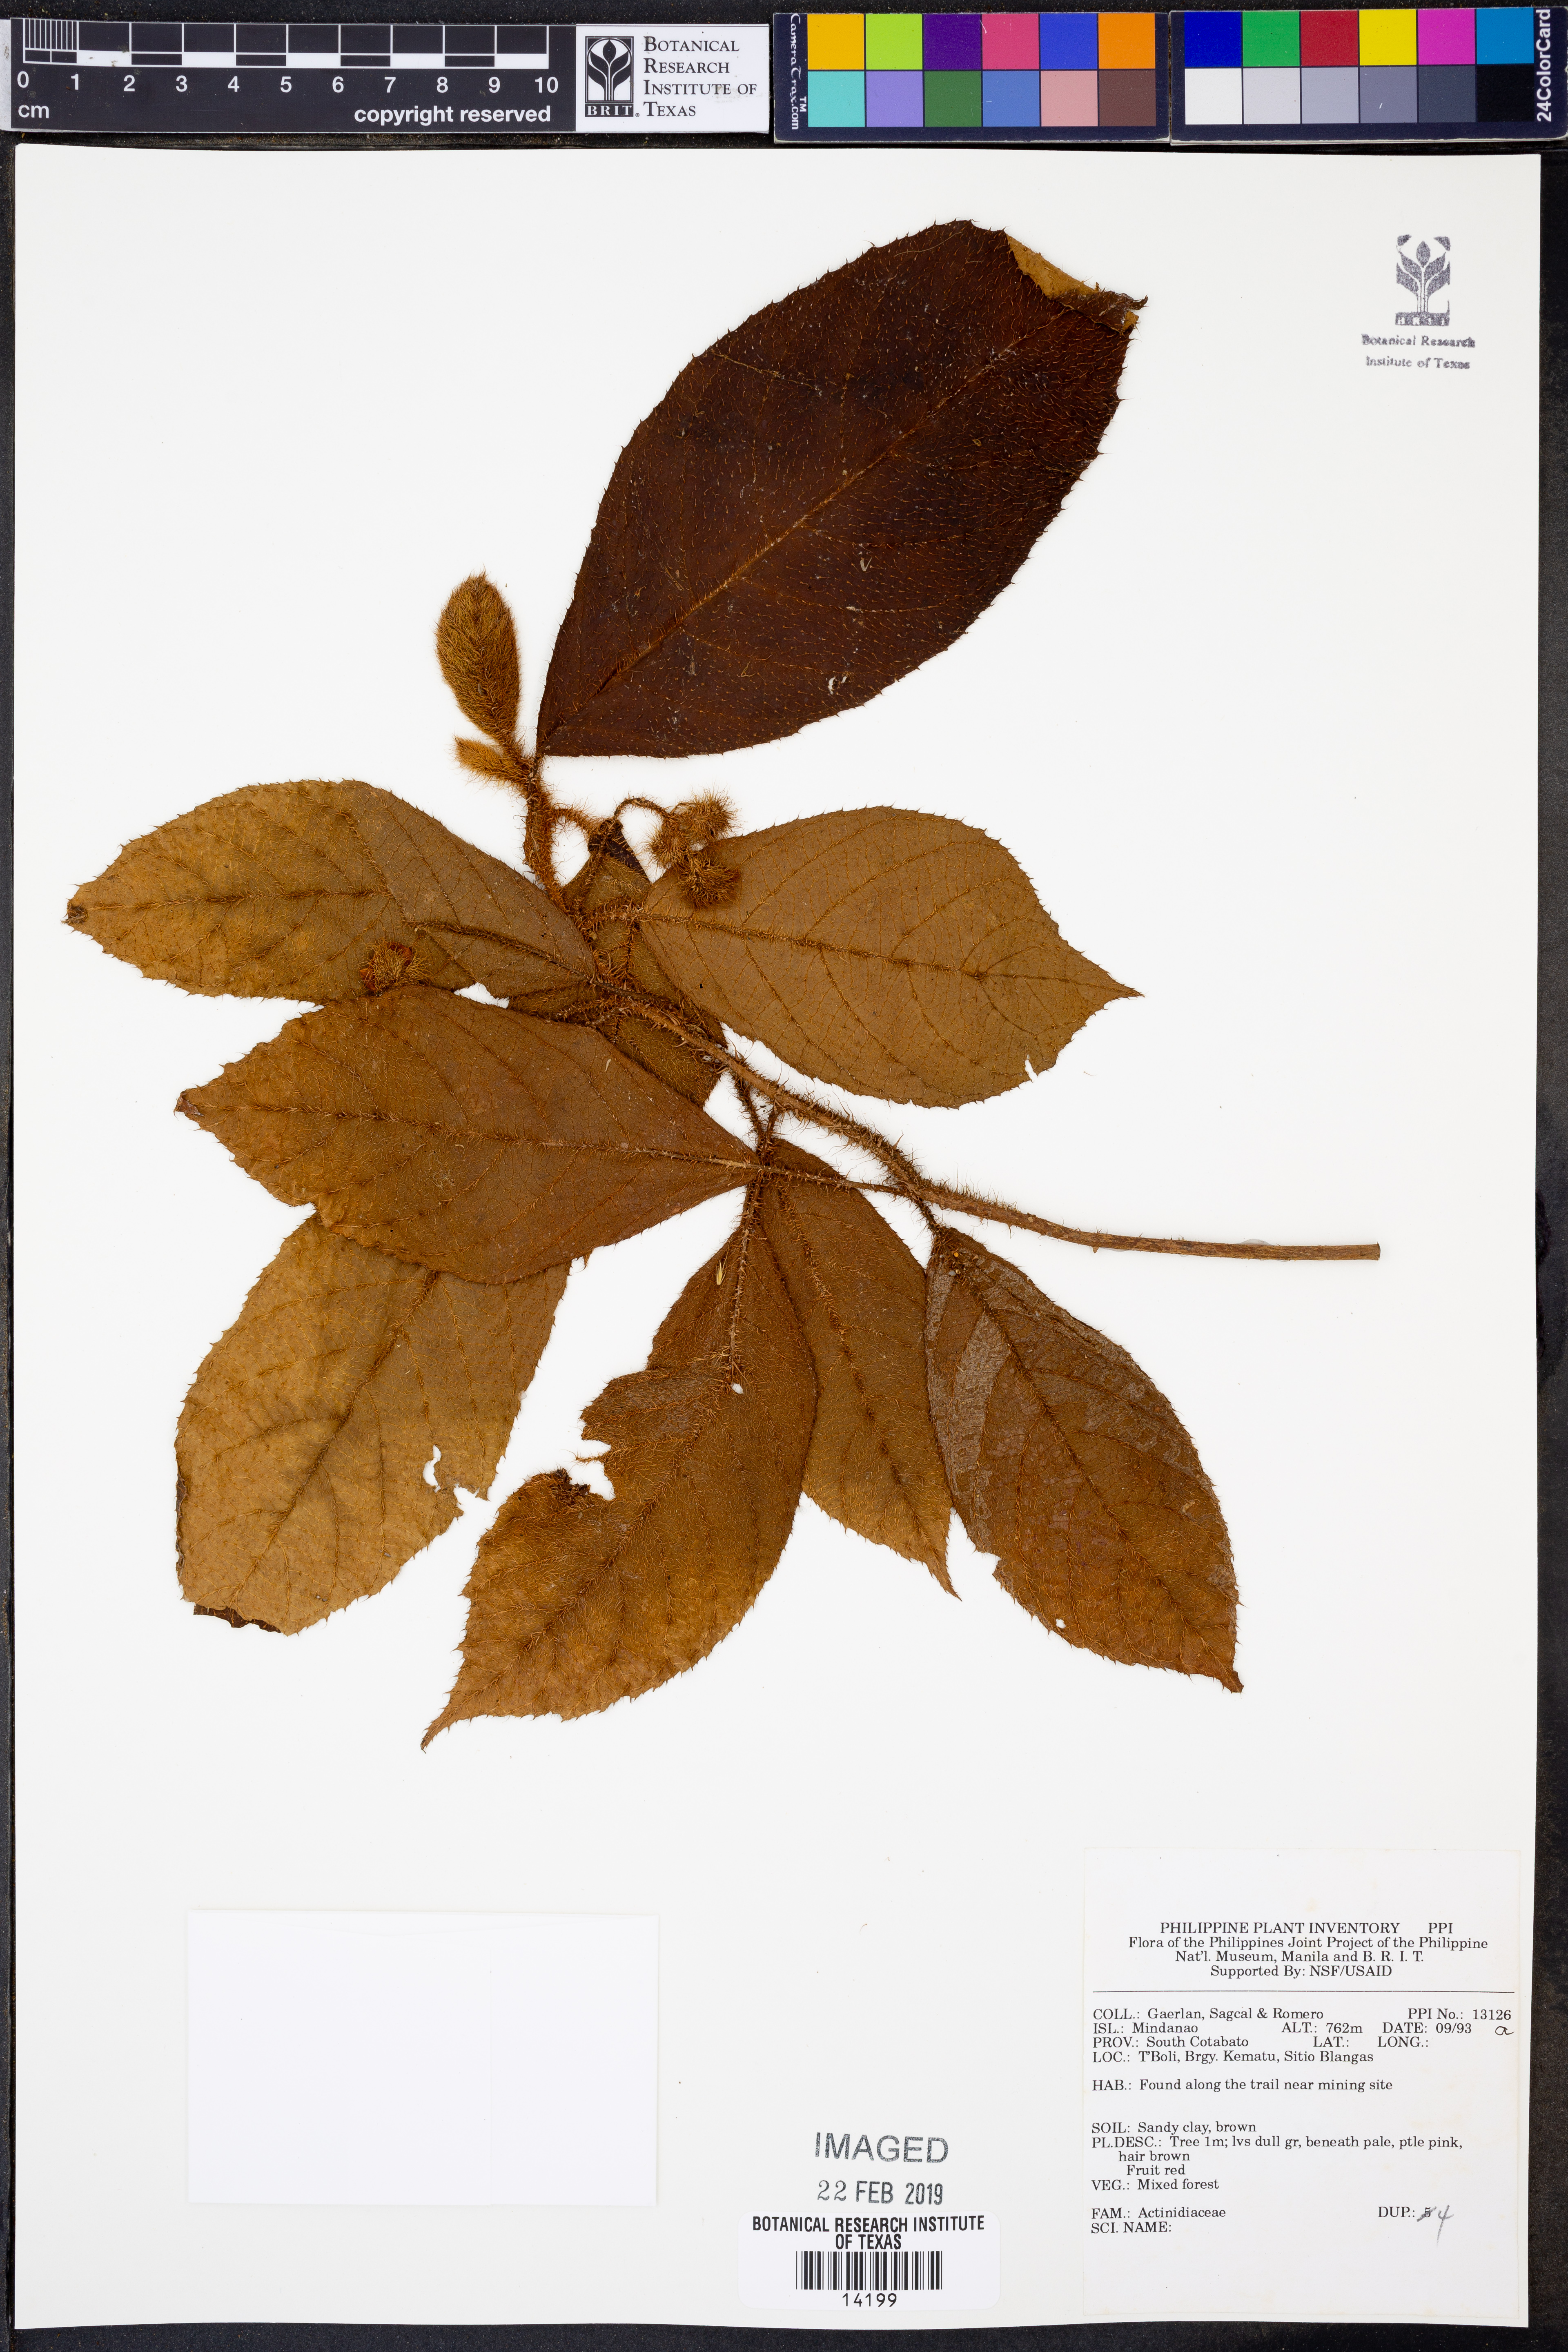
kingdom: Plantae
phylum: Tracheophyta
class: Magnoliopsida
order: Ericales
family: Actinidiaceae
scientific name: Actinidiaceae
